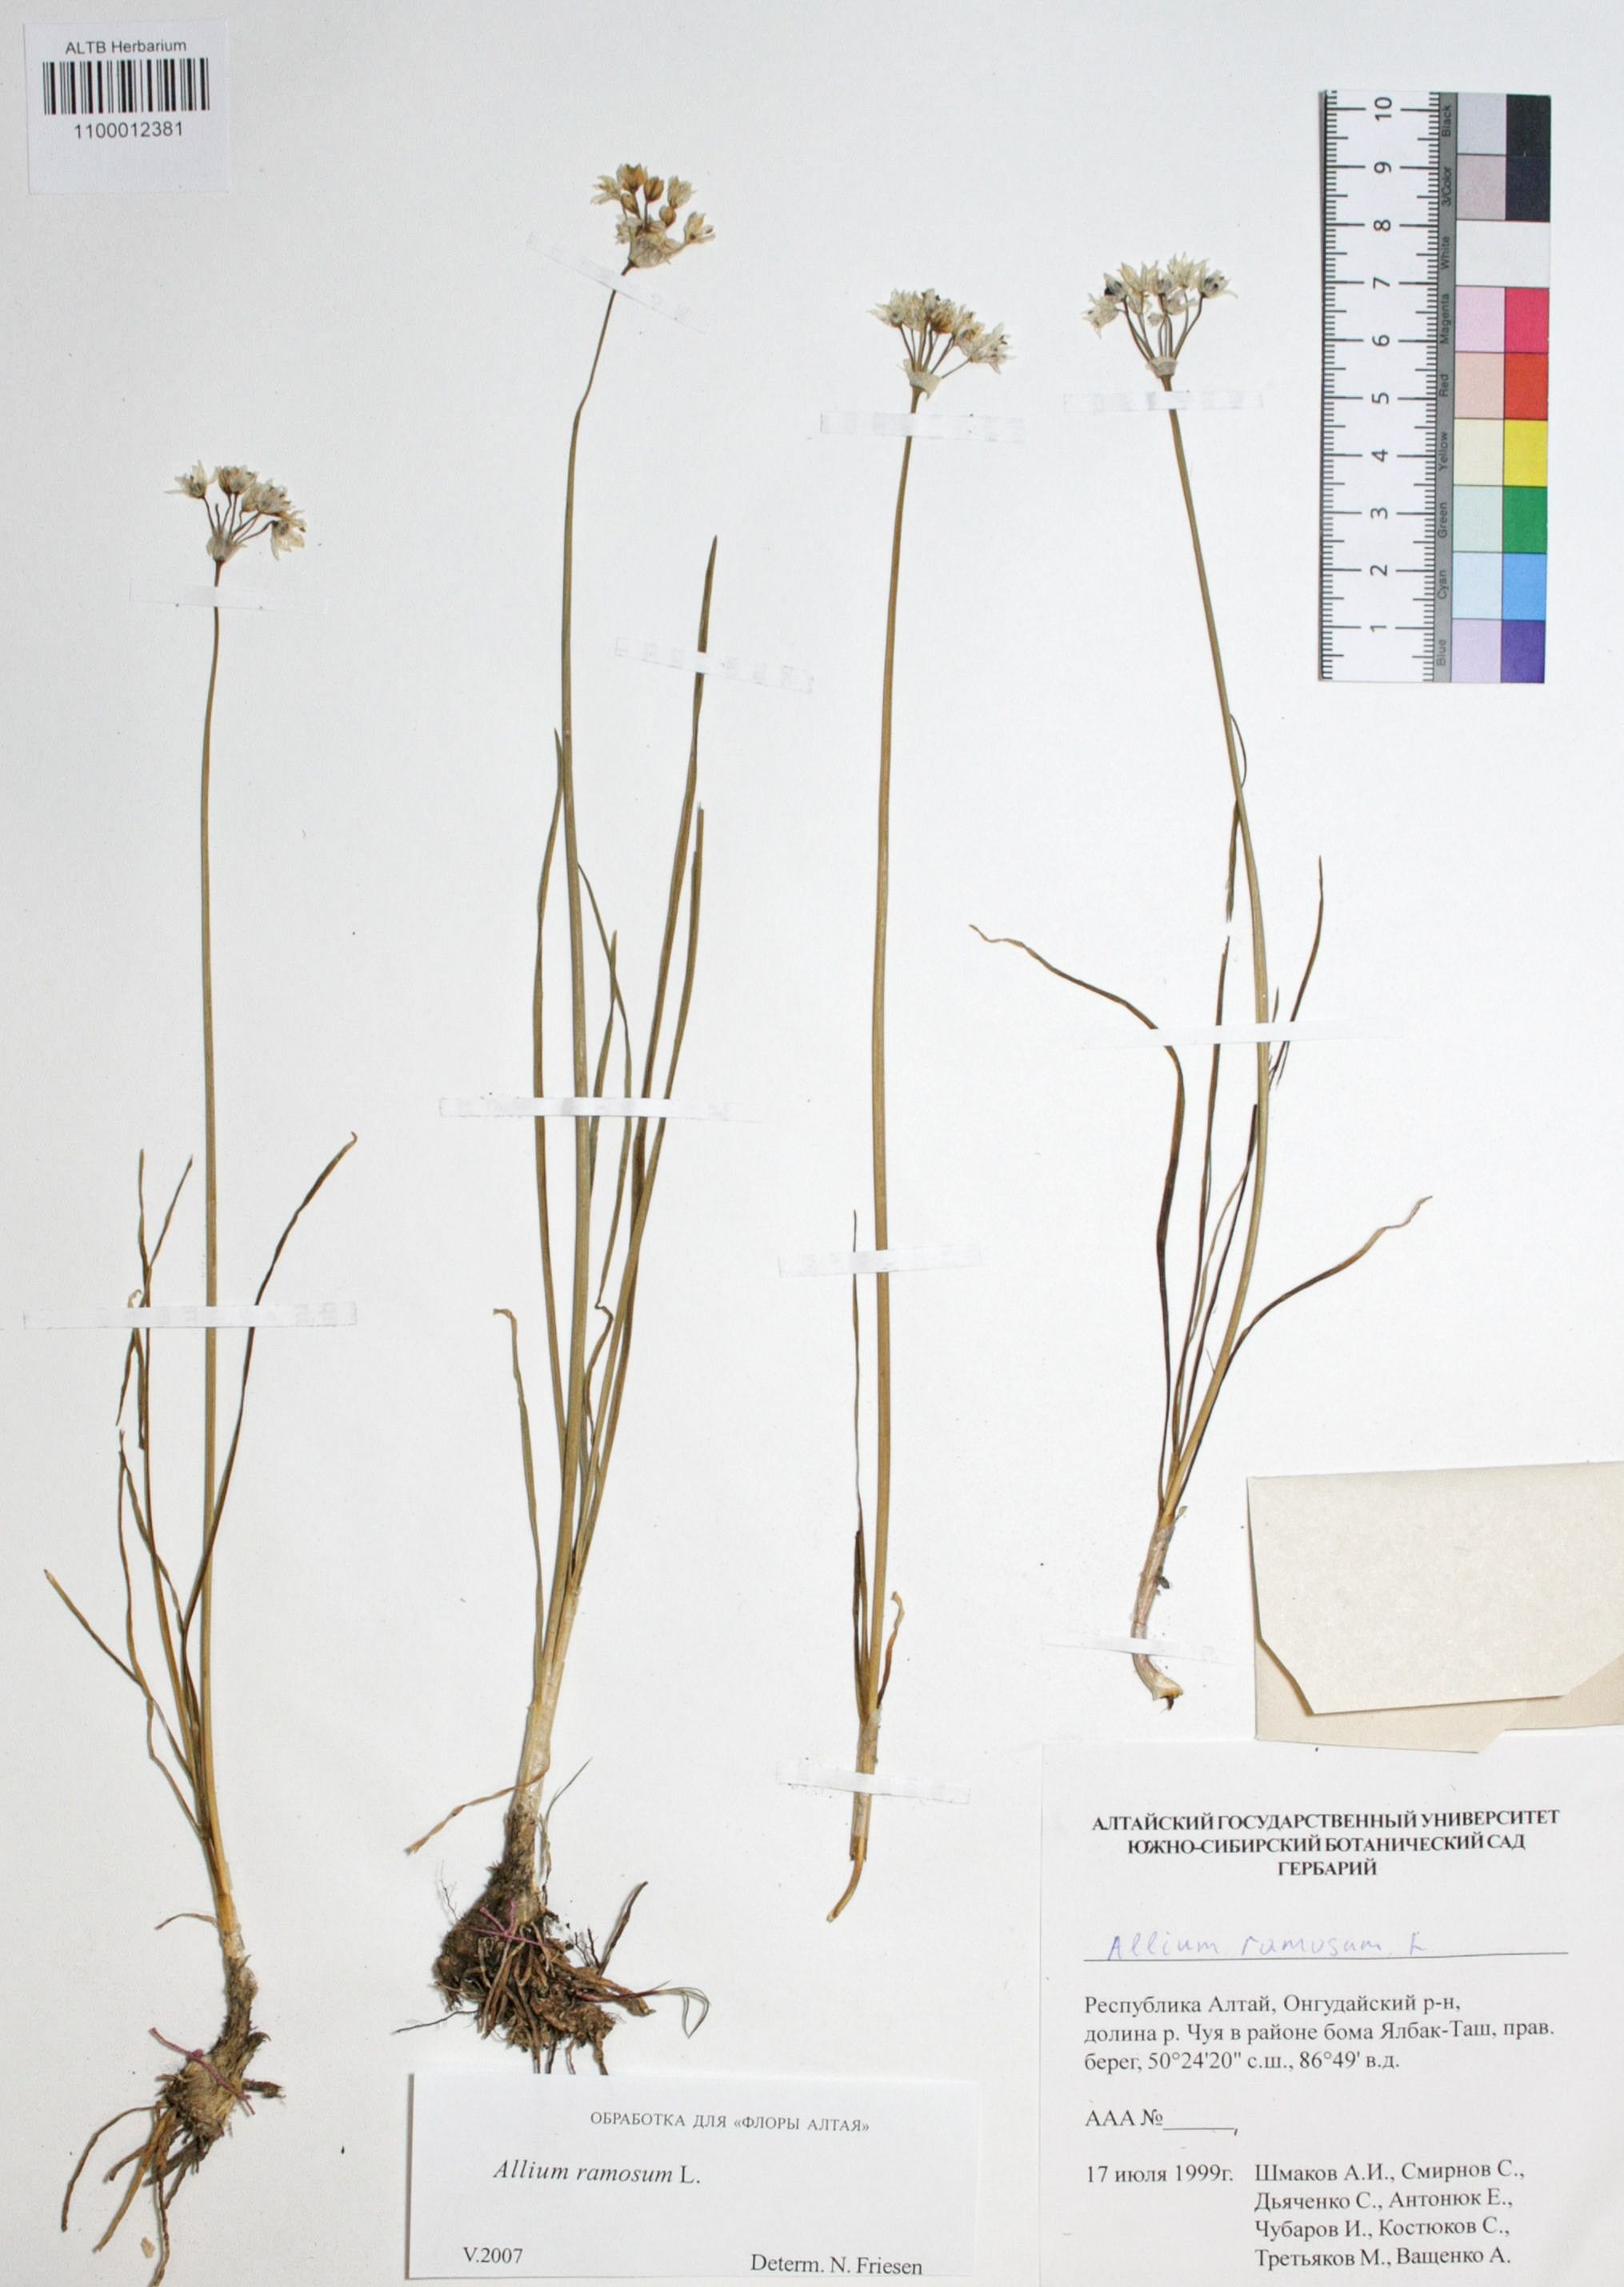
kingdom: Plantae
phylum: Tracheophyta
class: Liliopsida
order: Asparagales
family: Amaryllidaceae
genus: Allium
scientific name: Allium ramosum
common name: Fragrant garlic
